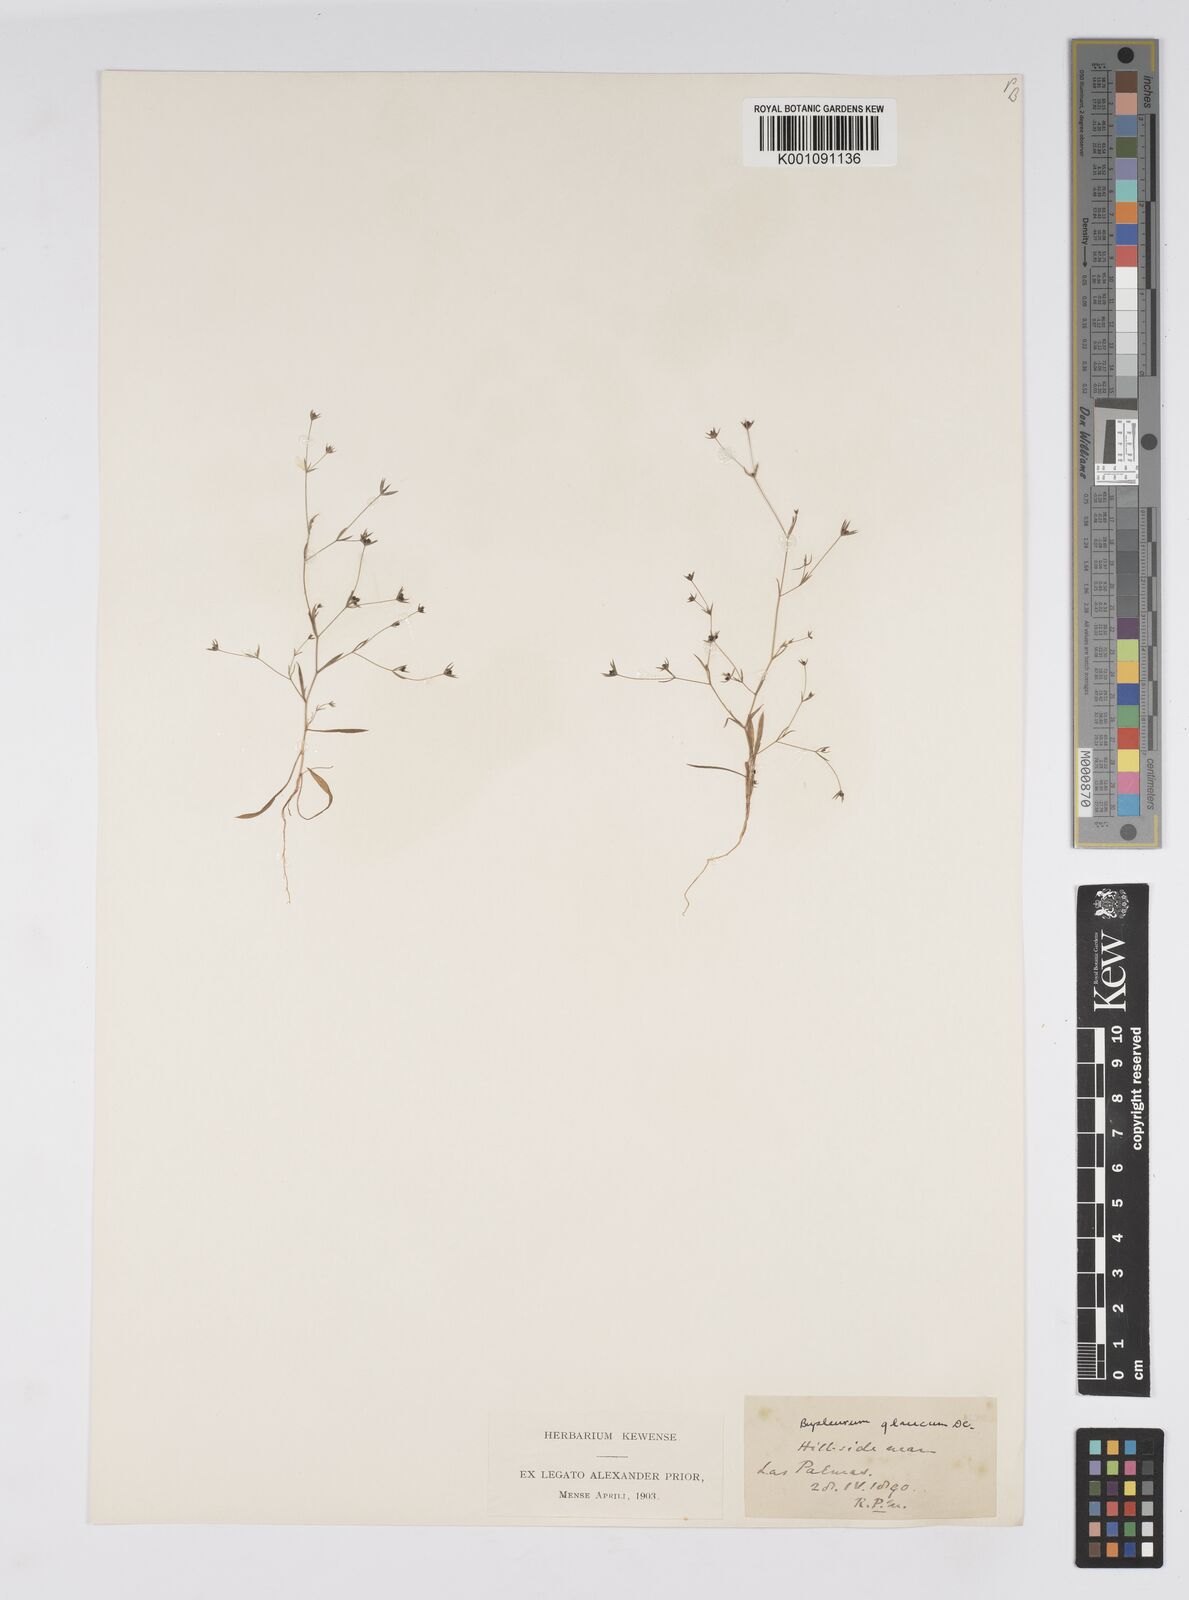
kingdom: Plantae
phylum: Tracheophyta
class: Magnoliopsida
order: Apiales
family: Apiaceae
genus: Bupleurum
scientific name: Bupleurum semicompositum
